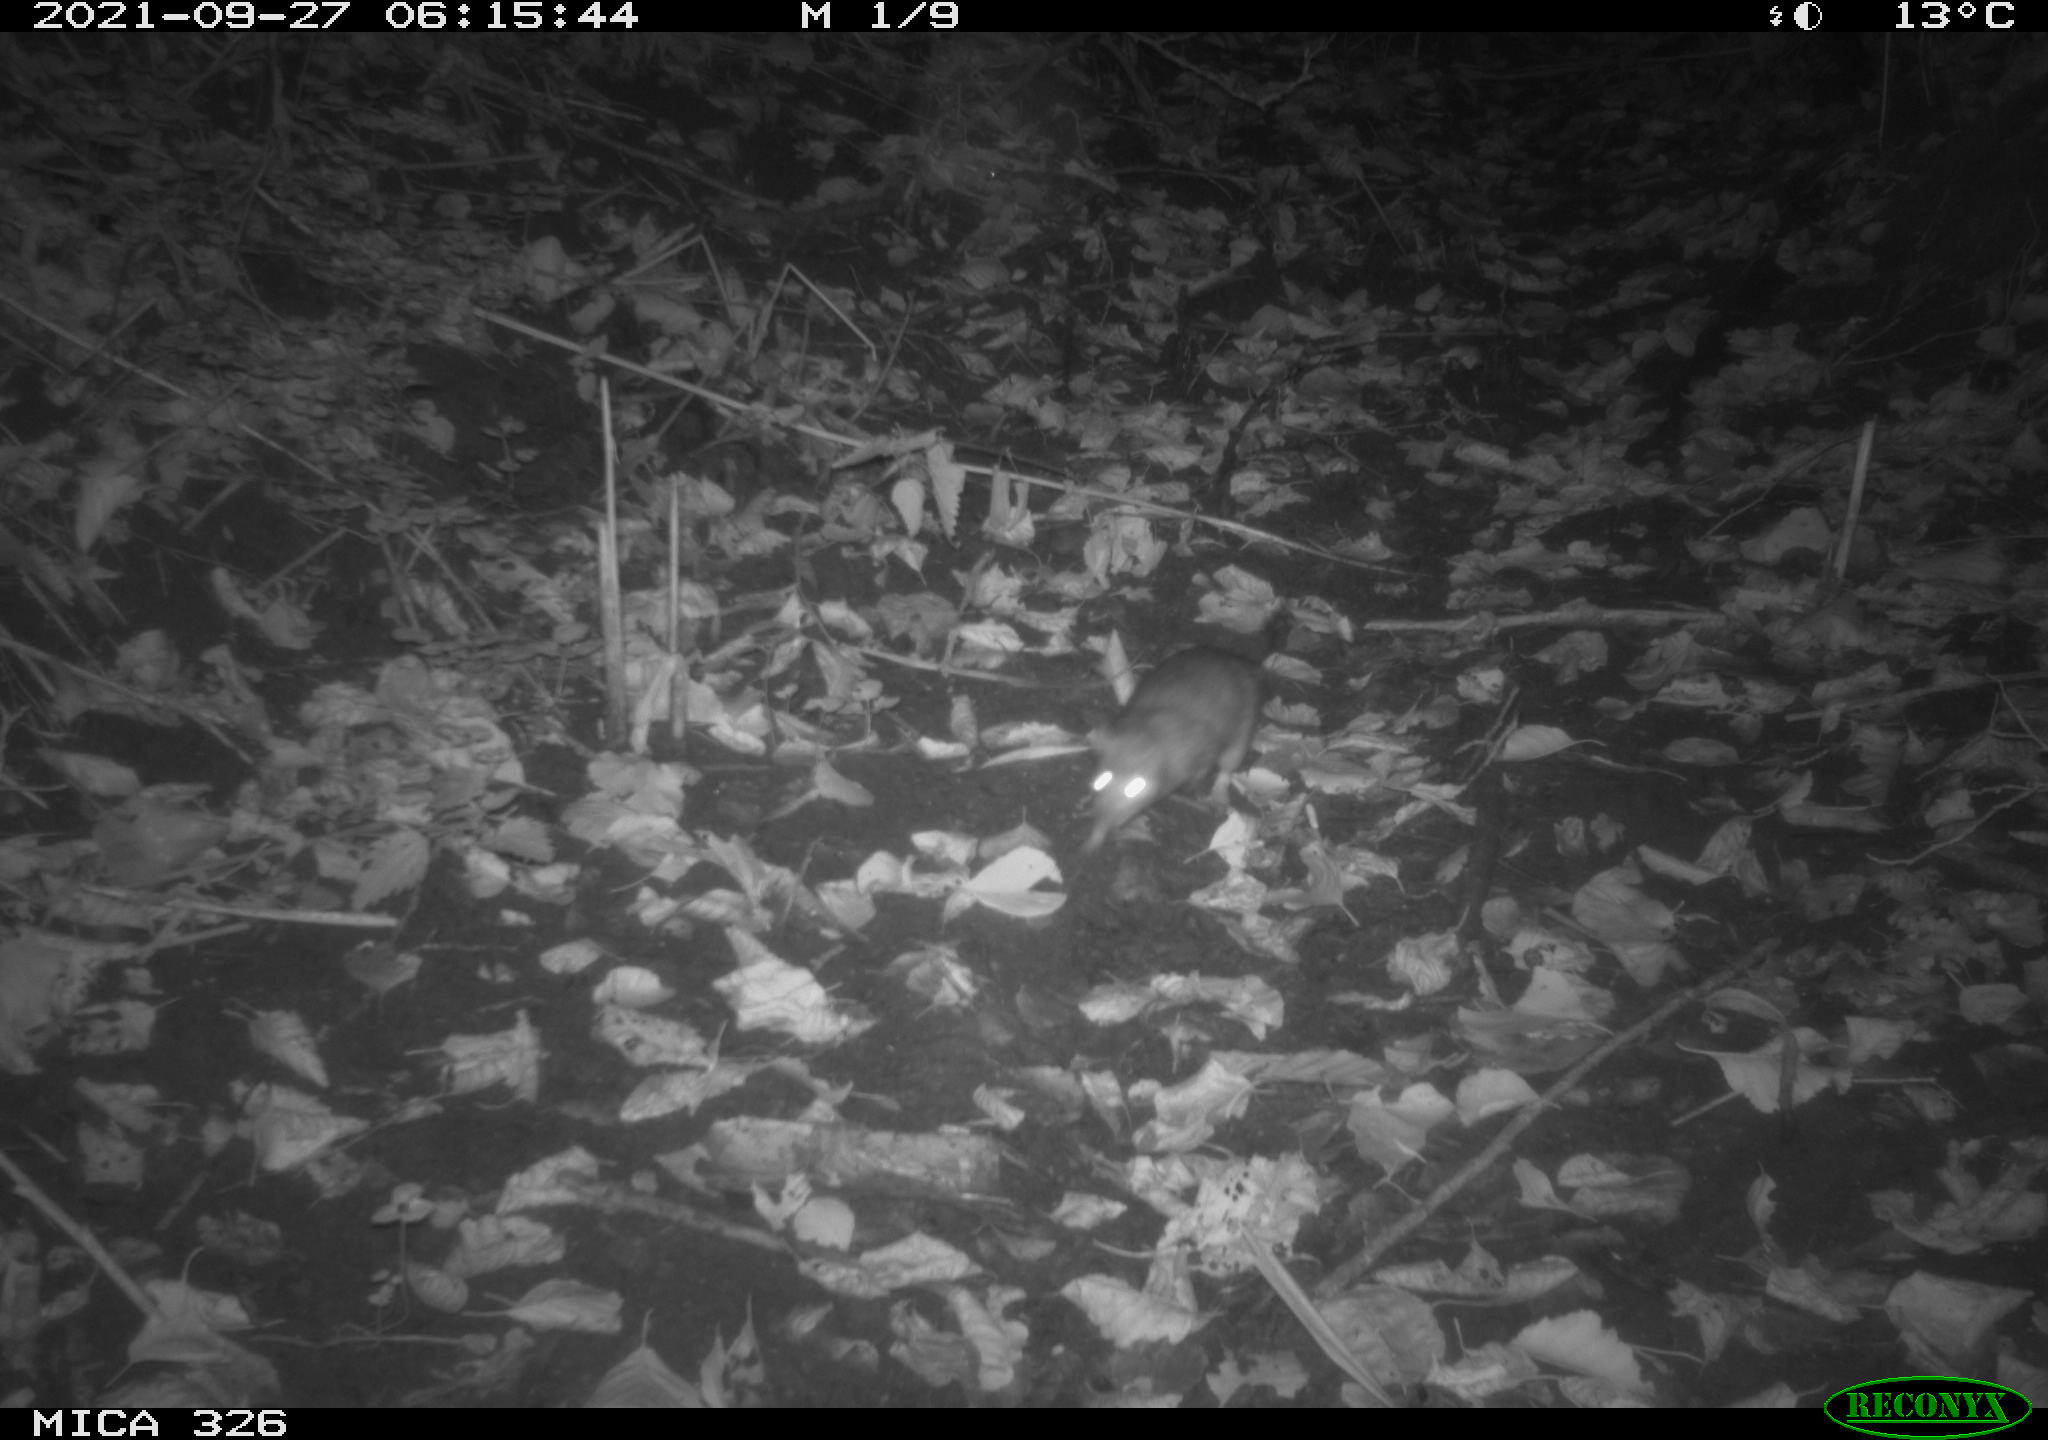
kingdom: Animalia
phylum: Chordata
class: Mammalia
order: Rodentia
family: Muridae
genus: Rattus
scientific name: Rattus norvegicus
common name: Brown rat
